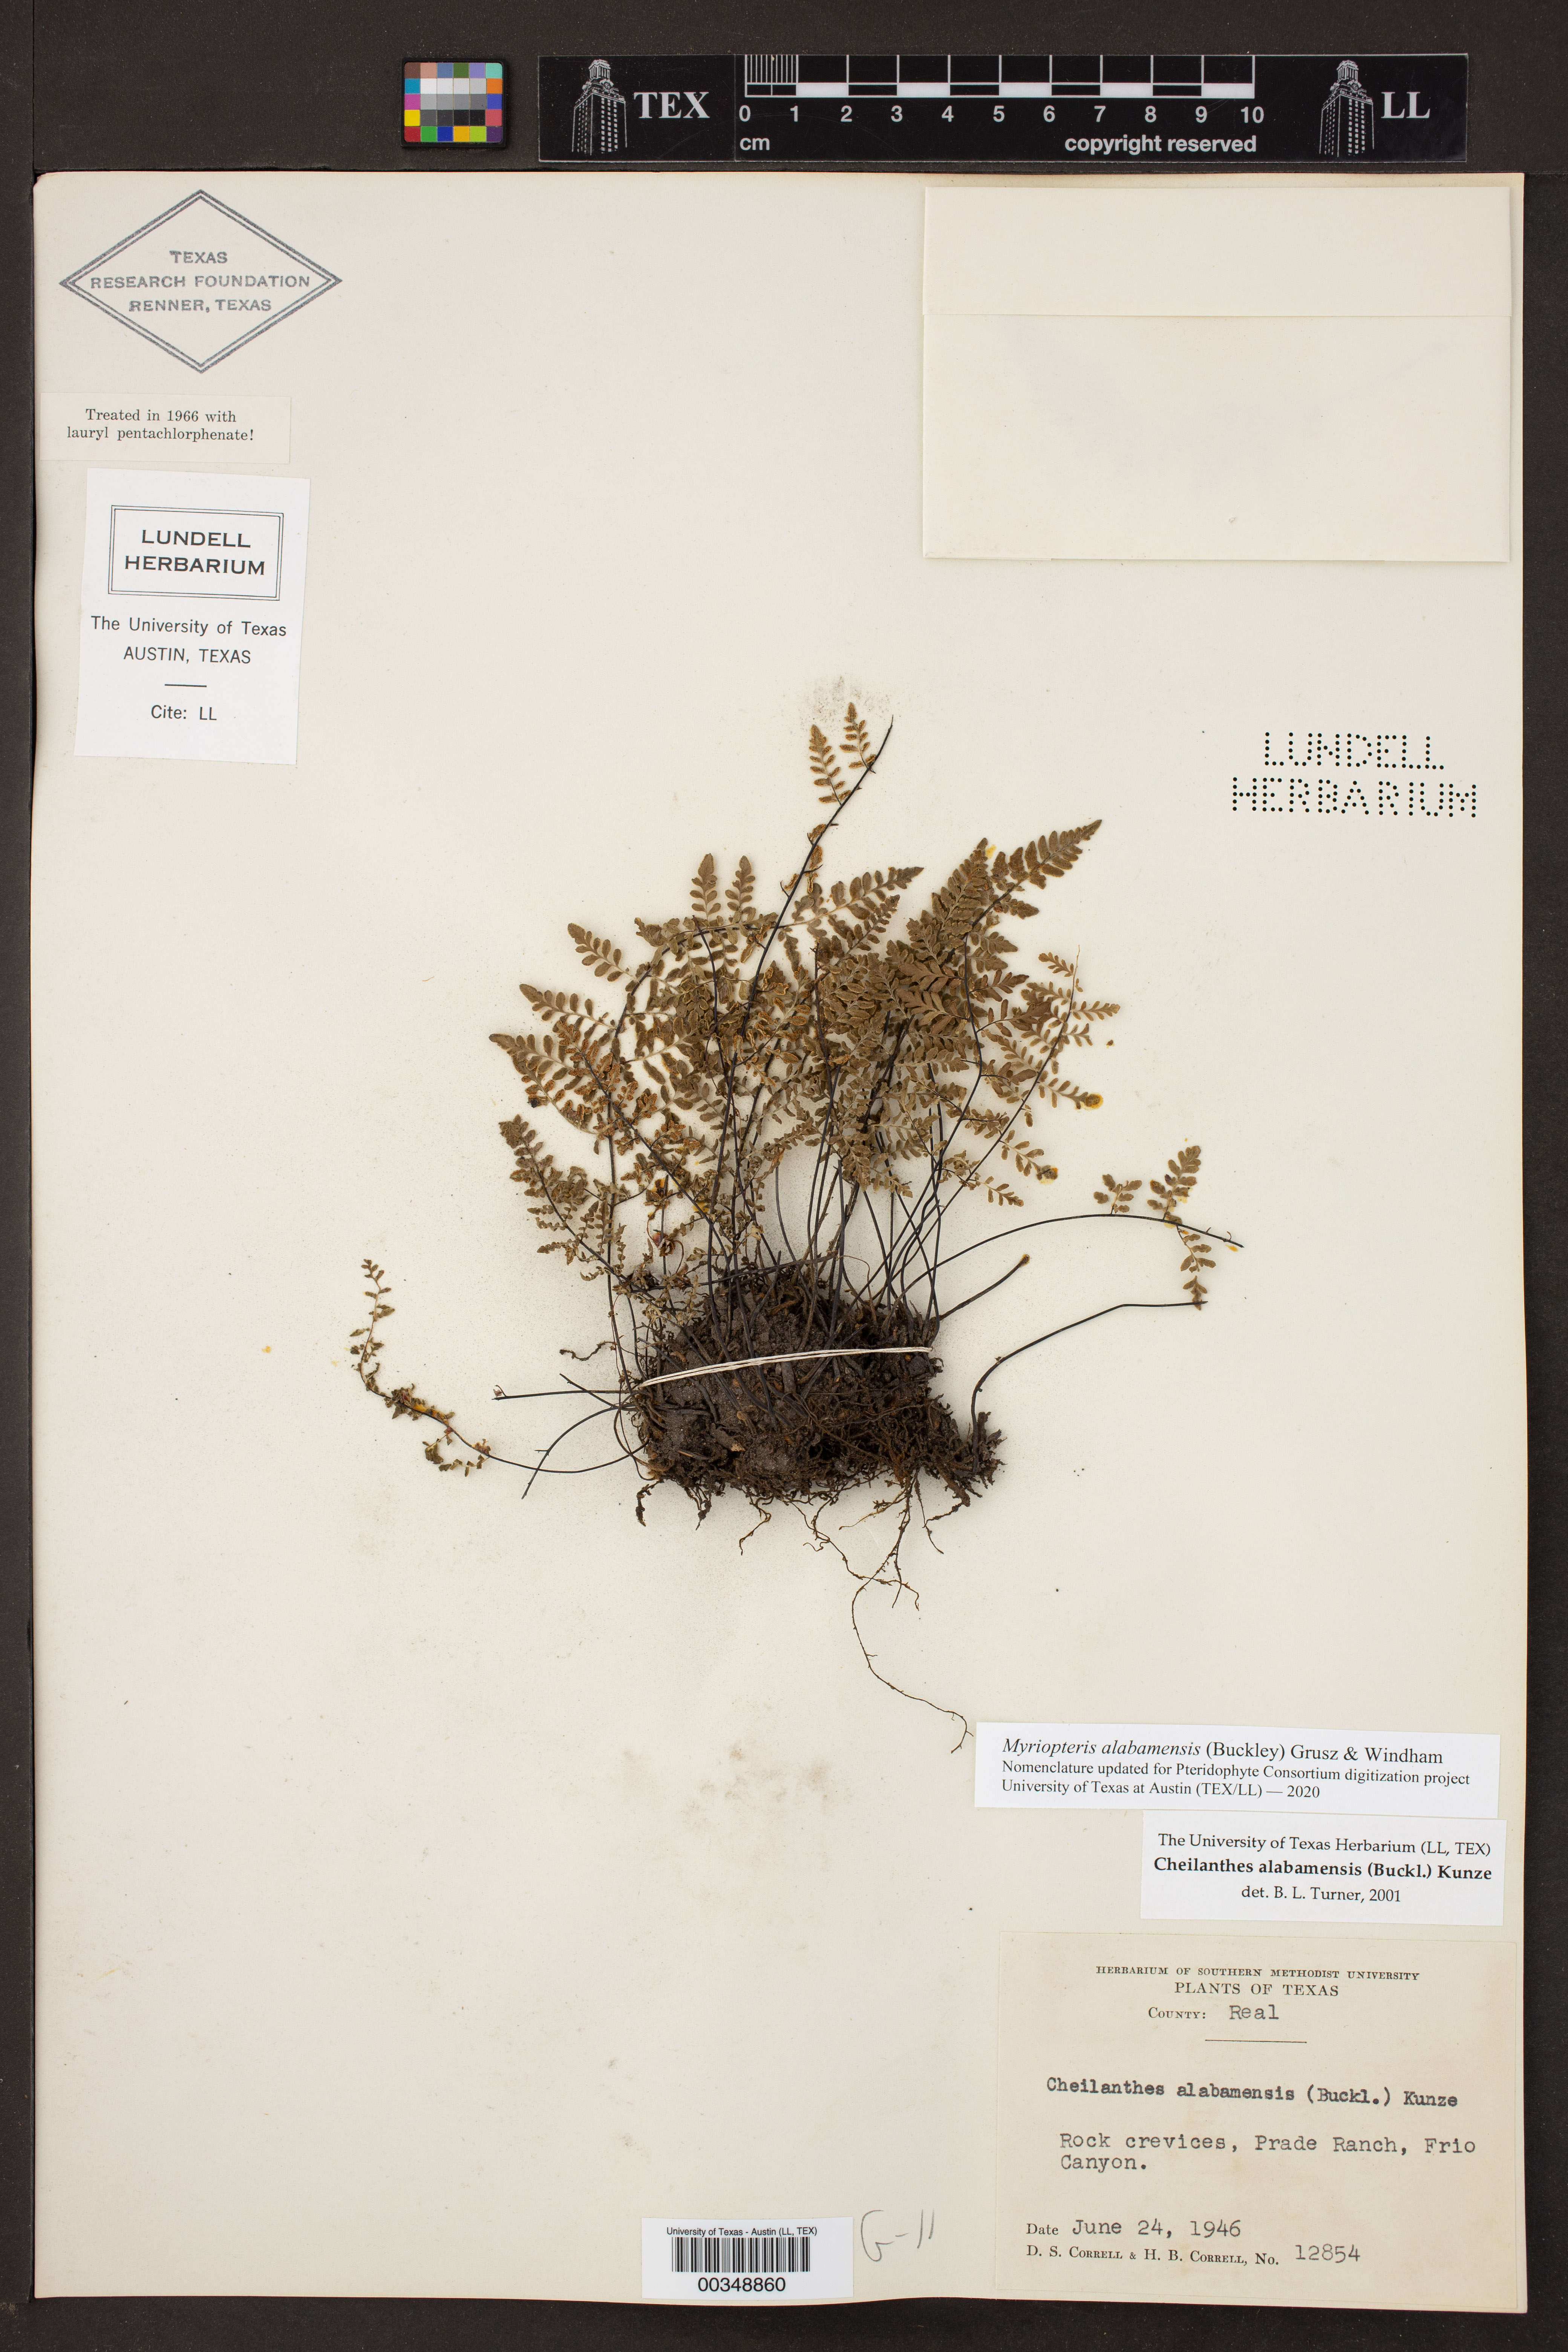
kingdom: Plantae
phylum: Tracheophyta
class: Polypodiopsida
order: Polypodiales
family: Pteridaceae
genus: Myriopteris
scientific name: Myriopteris alabamensis
